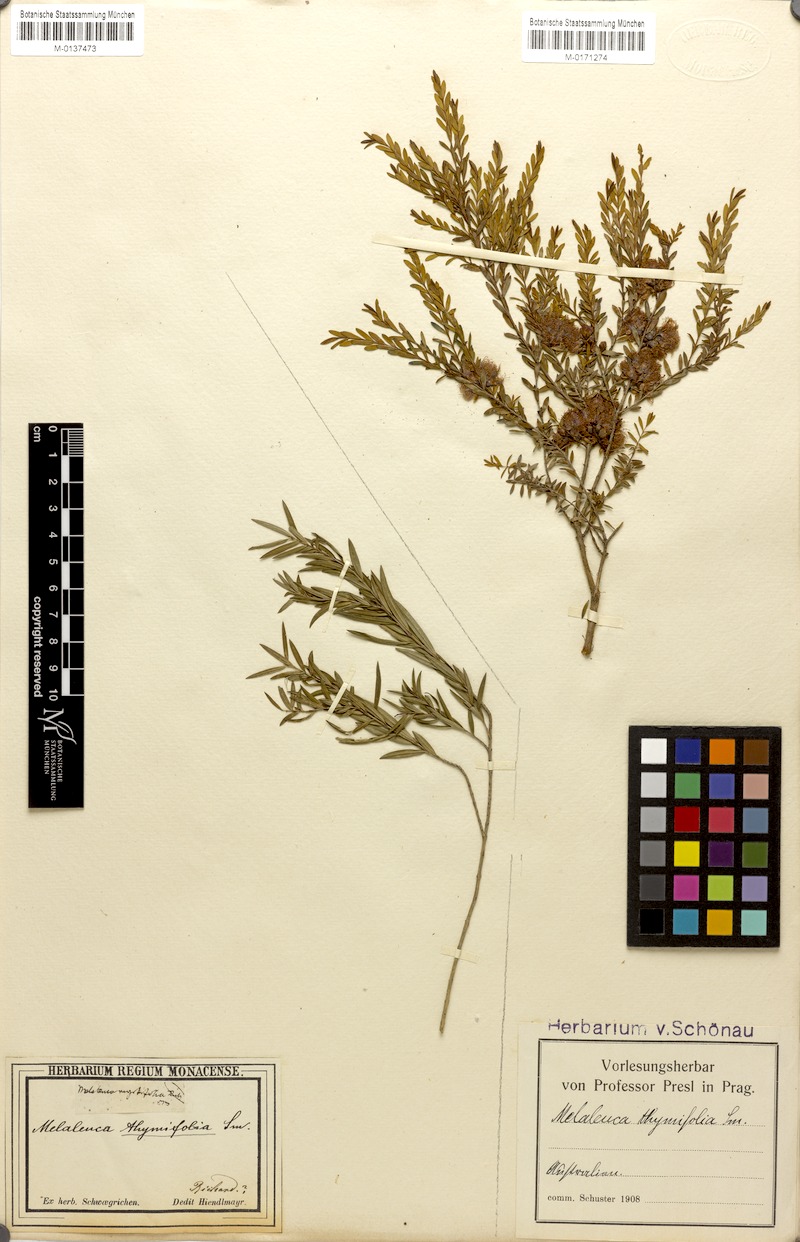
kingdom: Plantae
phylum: Tracheophyta
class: Magnoliopsida
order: Myrtales
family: Myrtaceae
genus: Melaleuca
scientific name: Melaleuca thymifolia
